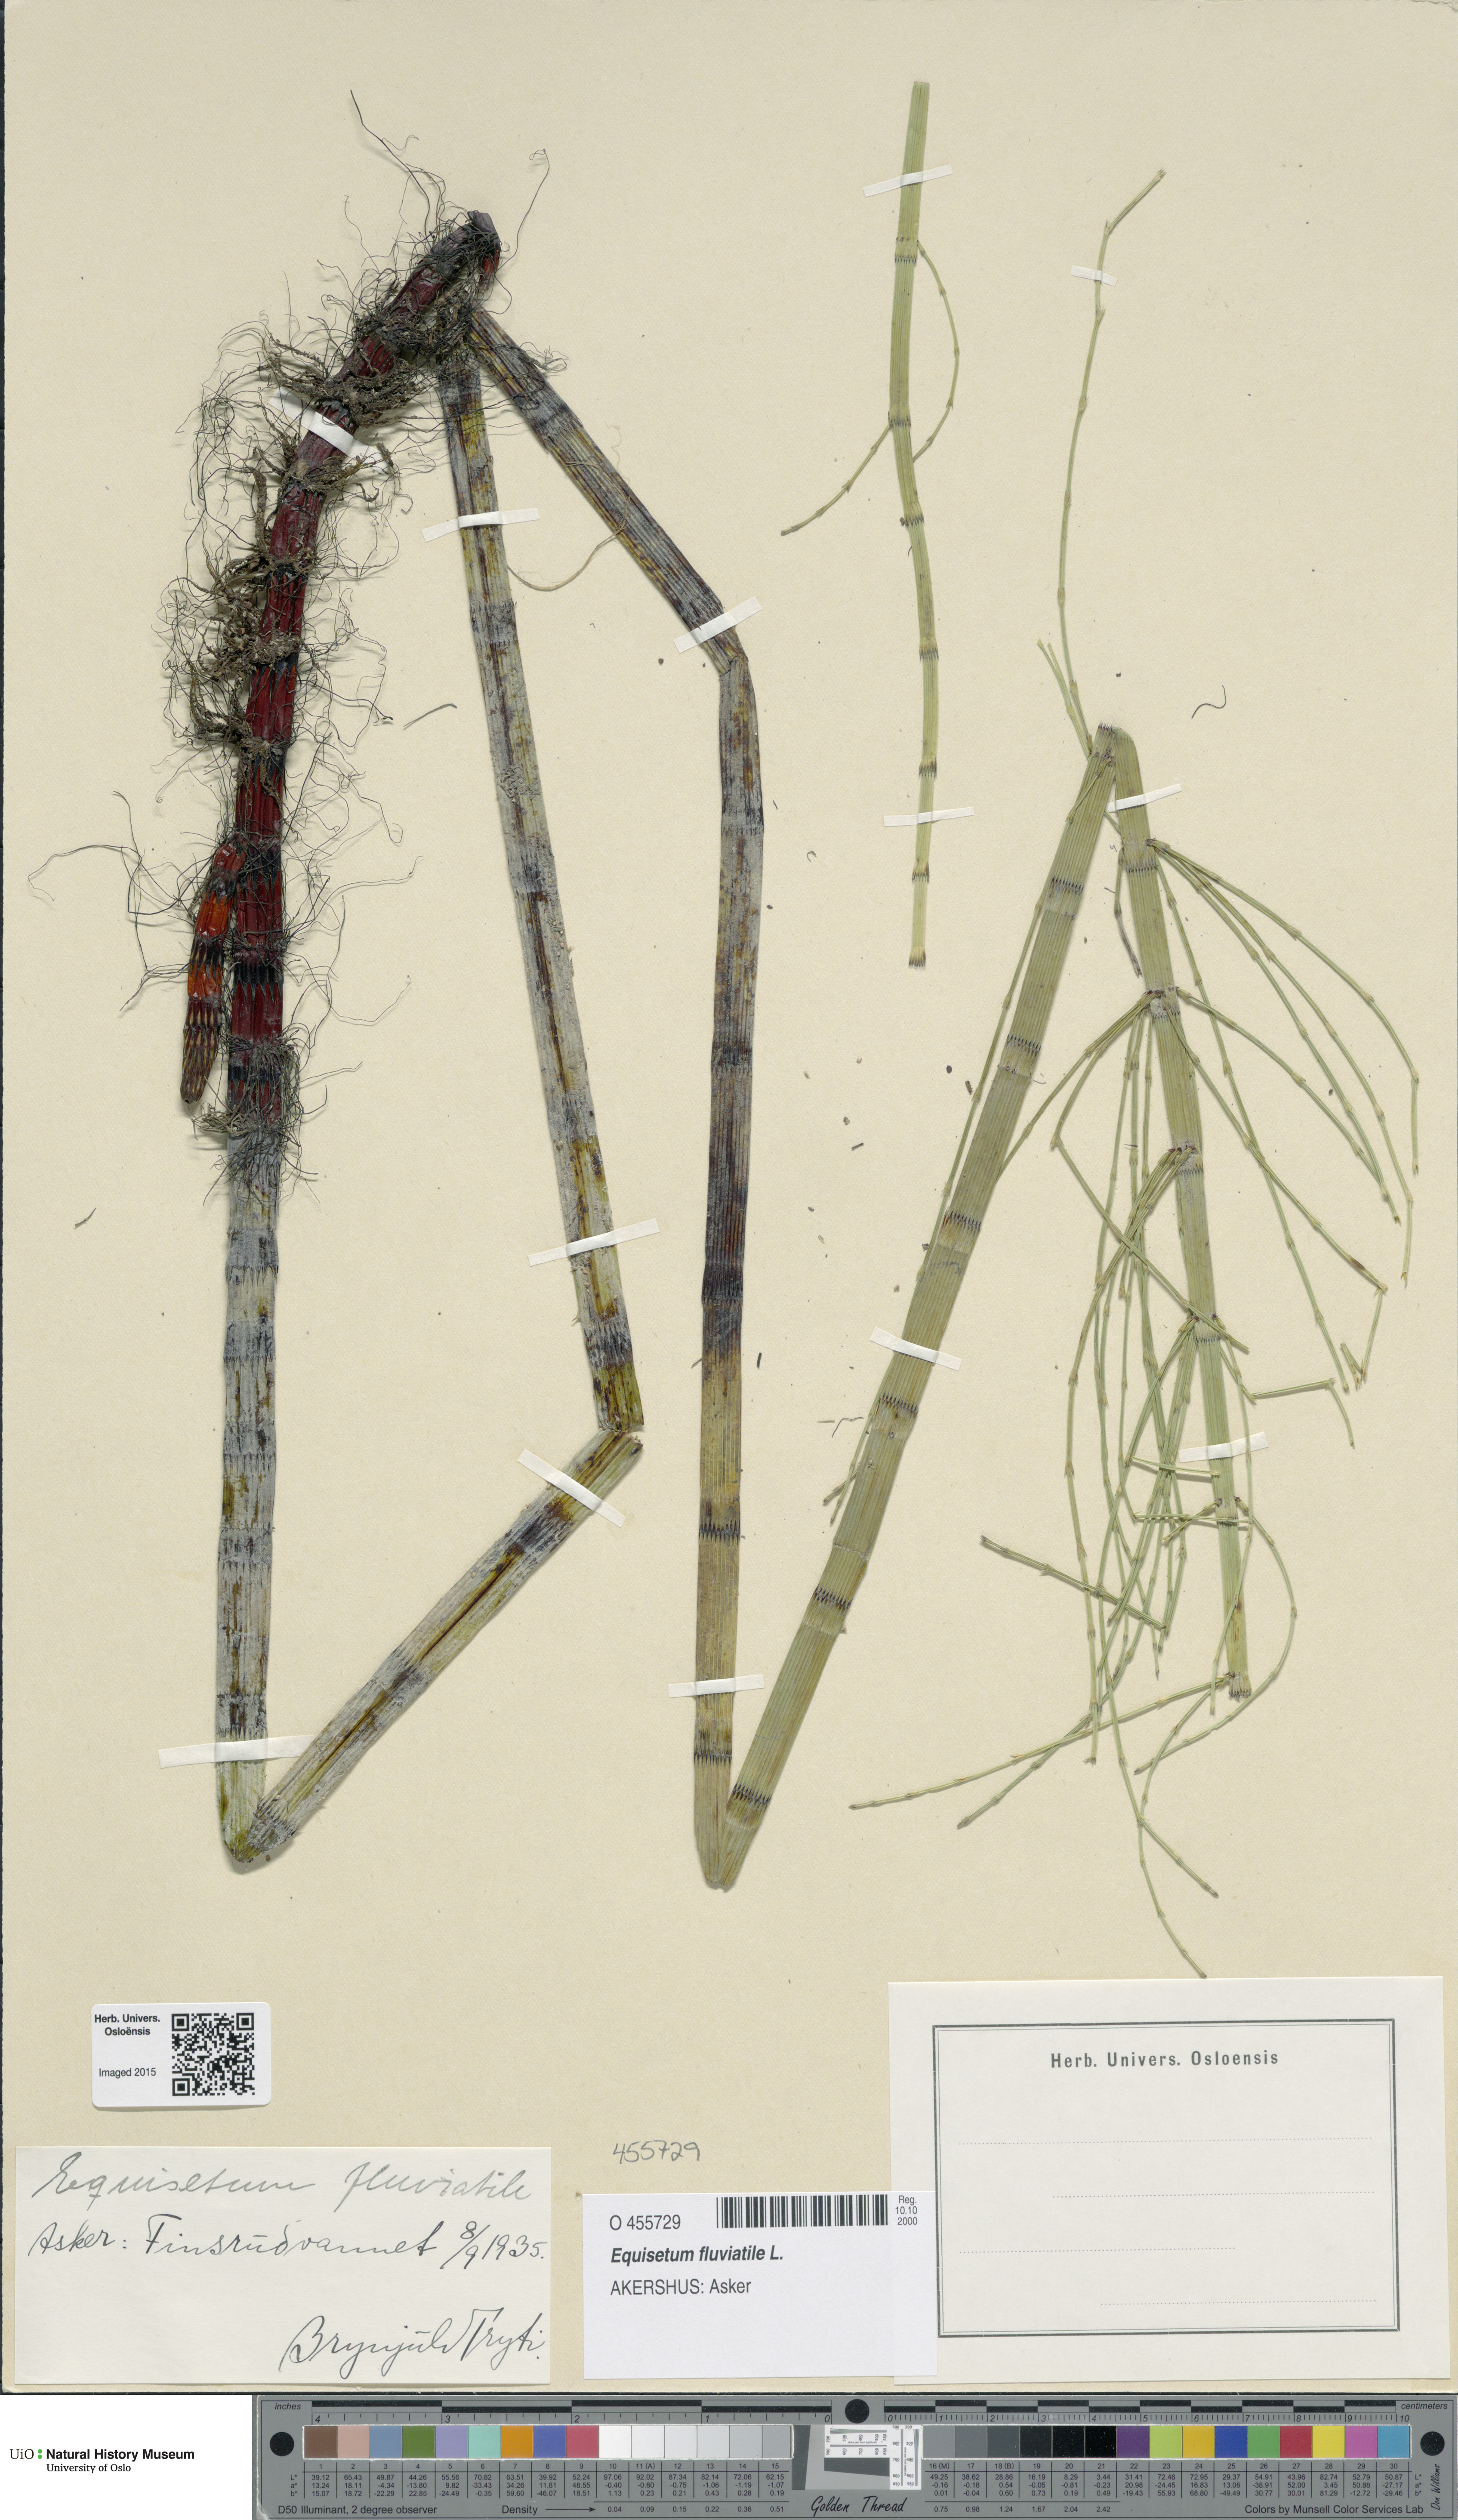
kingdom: Plantae
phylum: Tracheophyta
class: Polypodiopsida
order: Equisetales
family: Equisetaceae
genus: Equisetum
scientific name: Equisetum fluviatile
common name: Water horsetail
